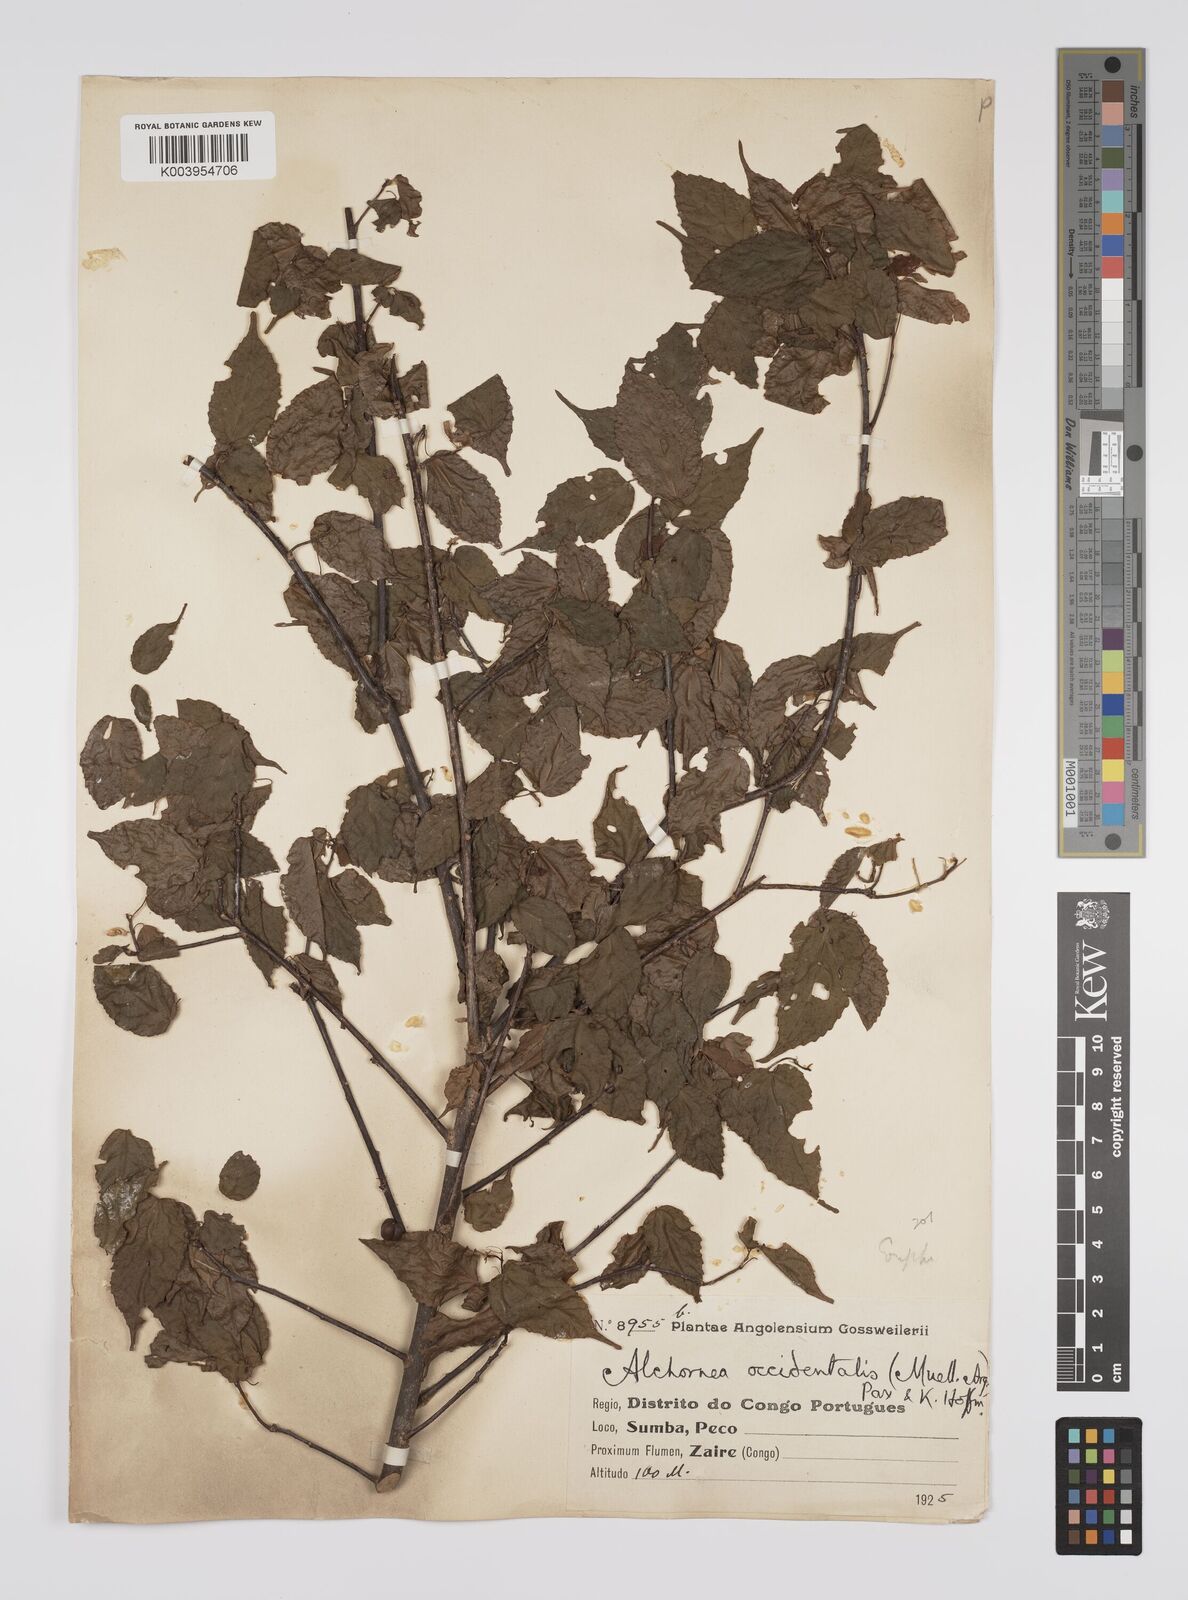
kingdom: Plantae
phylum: Tracheophyta
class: Magnoliopsida
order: Malpighiales
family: Euphorbiaceae
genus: Alchornea
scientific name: Alchornea occidentalis
